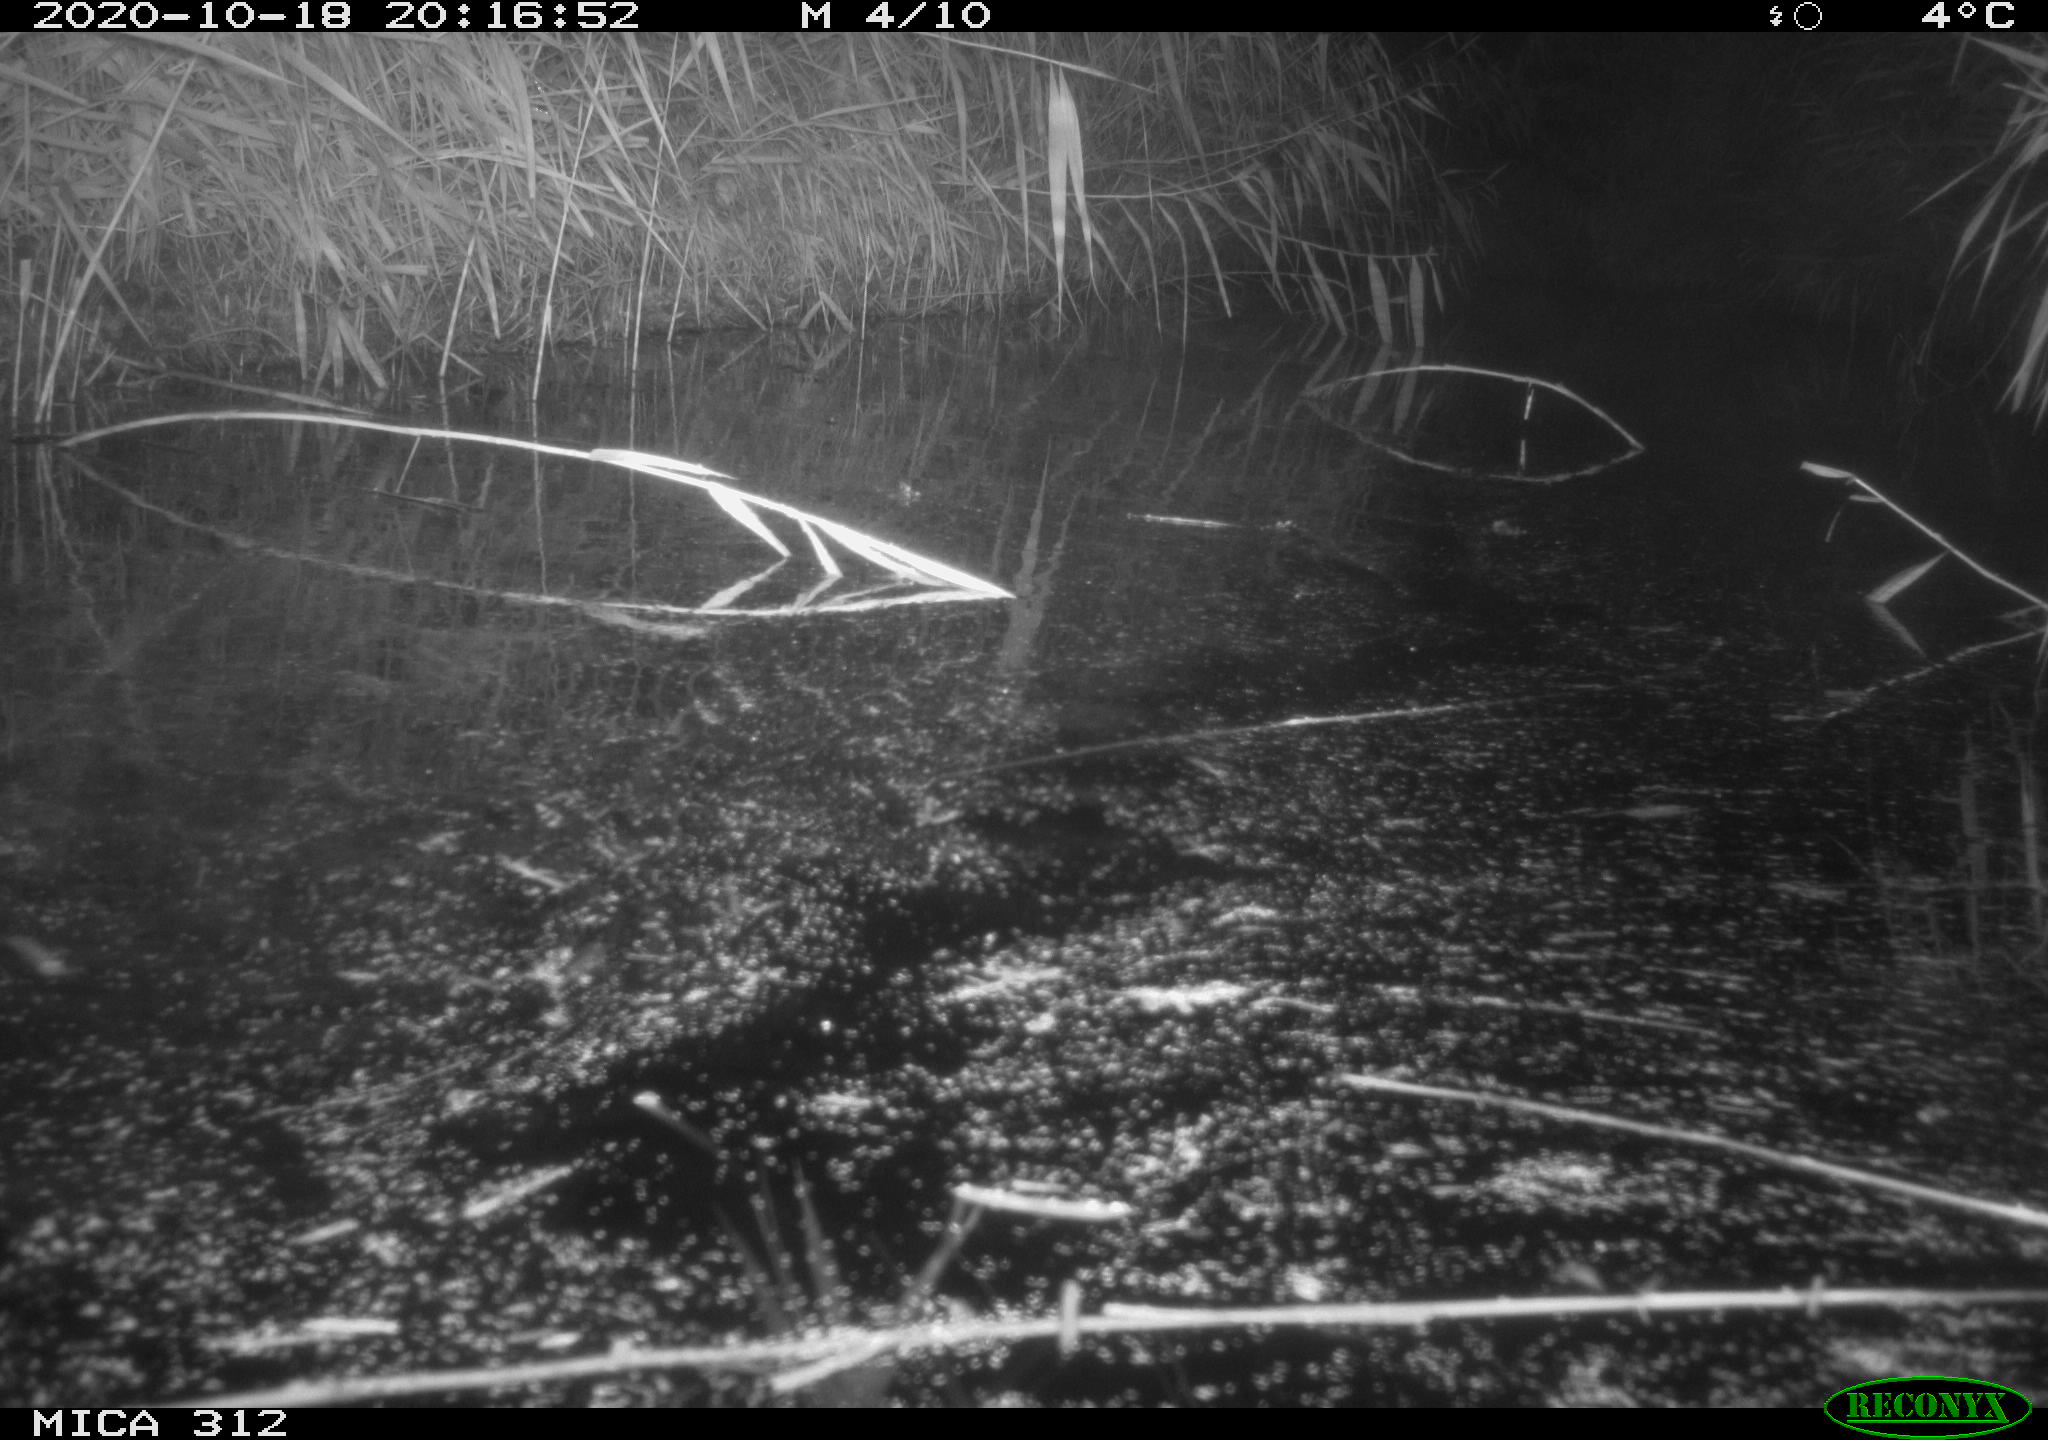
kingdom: Animalia
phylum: Chordata
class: Mammalia
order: Rodentia
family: Muridae
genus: Rattus
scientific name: Rattus norvegicus
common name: Brown rat
